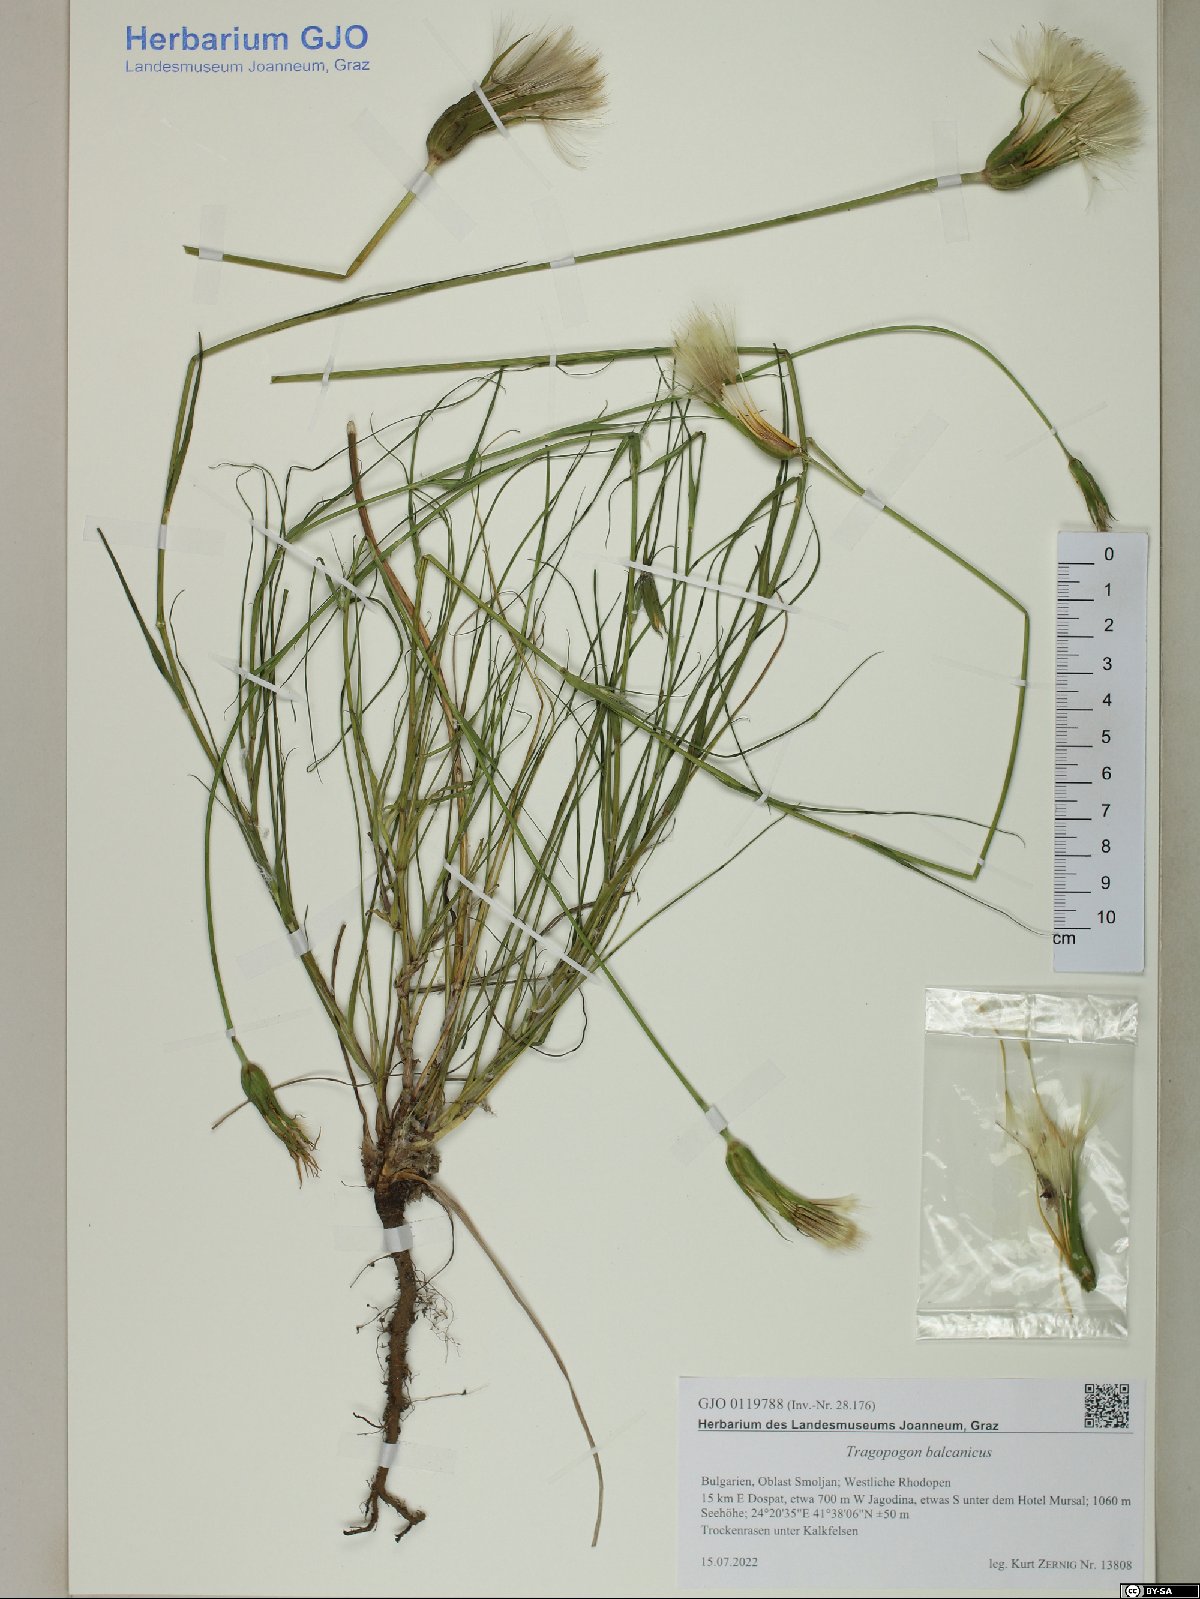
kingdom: Plantae
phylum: Tracheophyta
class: Magnoliopsida
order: Asterales
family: Asteraceae
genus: Tragopogon
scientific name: Tragopogon balcanicus
